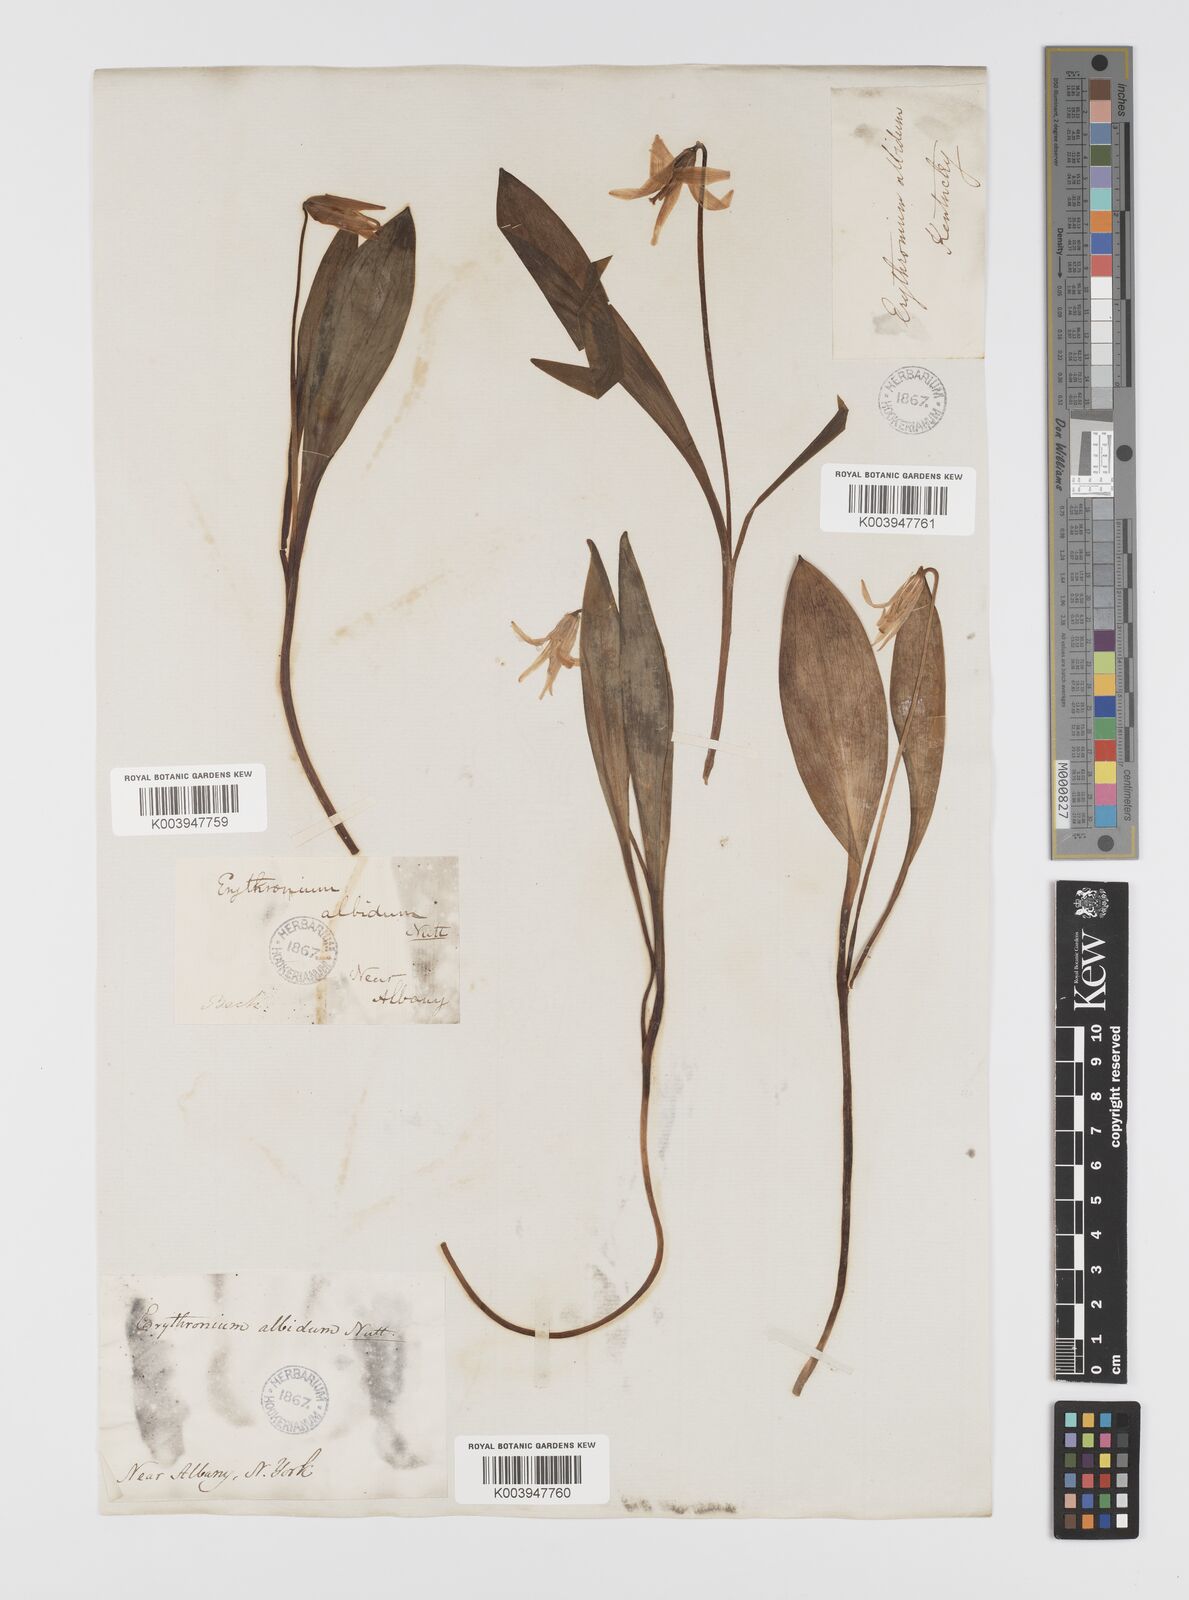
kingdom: Plantae
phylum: Tracheophyta
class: Liliopsida
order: Liliales
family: Liliaceae
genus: Erythronium
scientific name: Erythronium albidum
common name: White trout-lily
